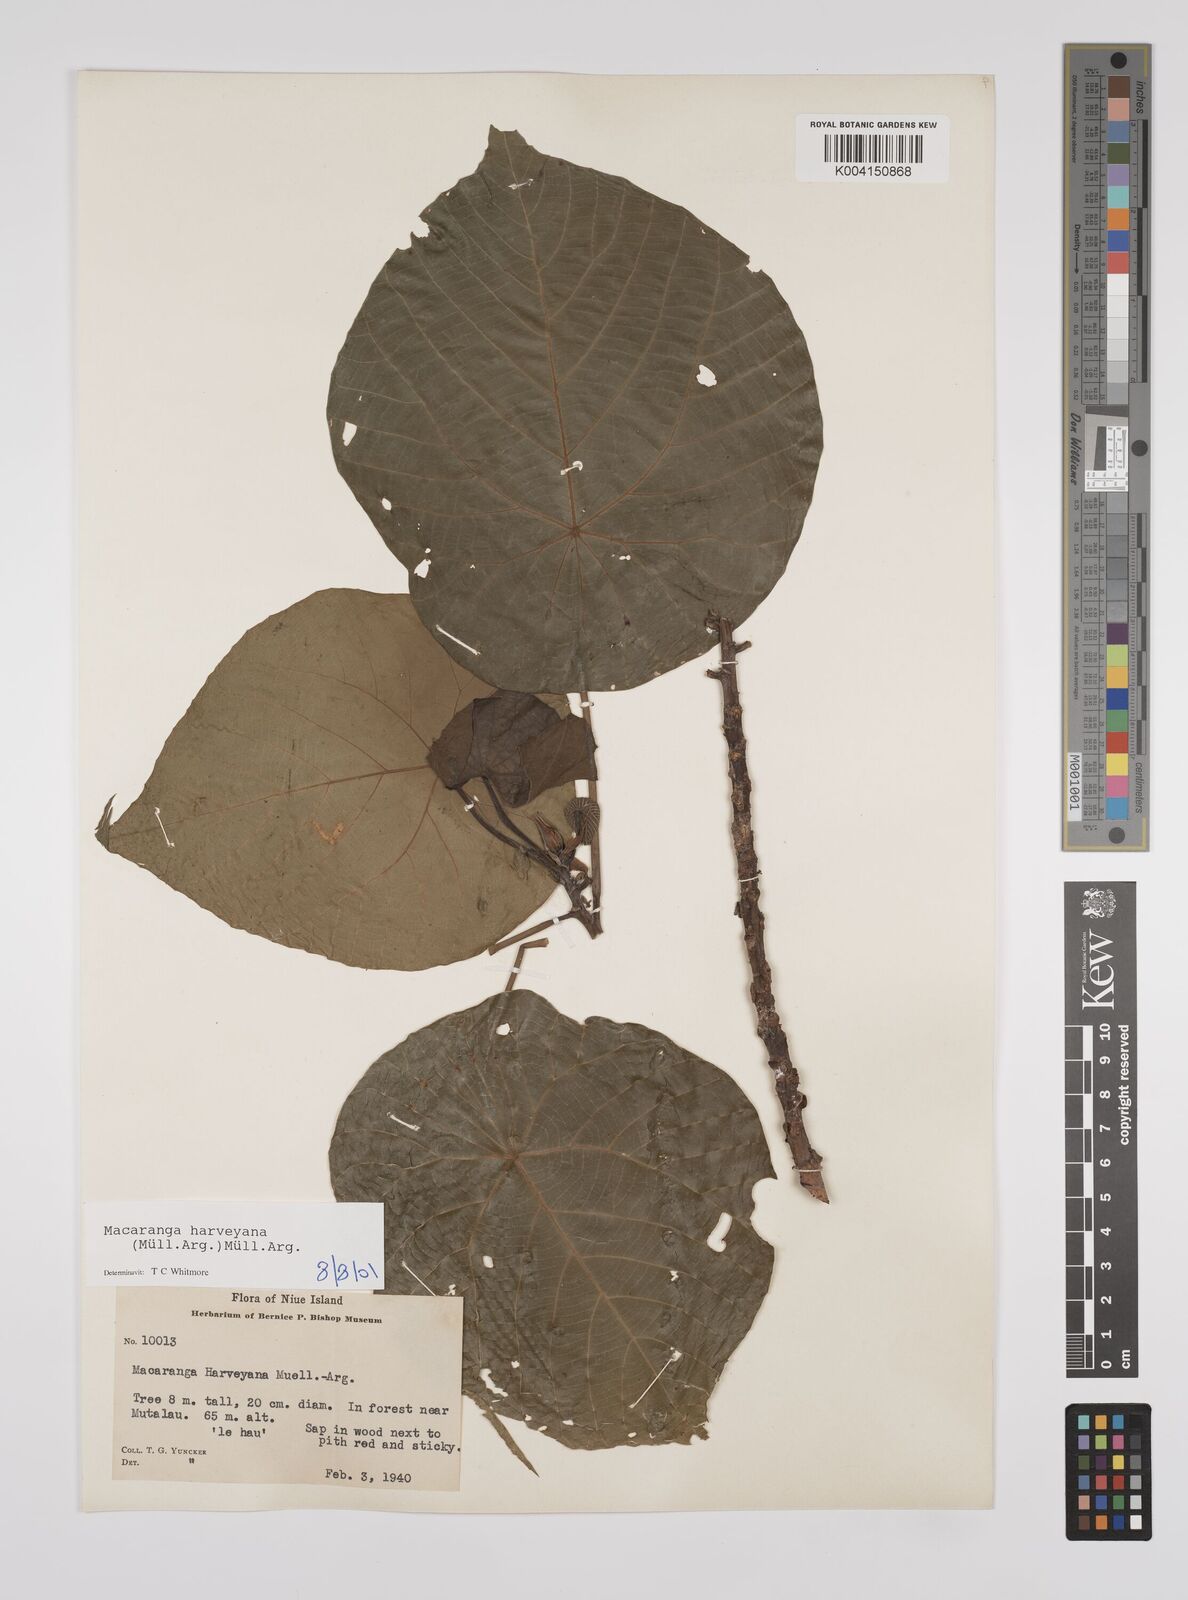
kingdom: Plantae
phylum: Tracheophyta
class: Magnoliopsida
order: Malpighiales
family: Euphorbiaceae
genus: Macaranga
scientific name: Macaranga harveyana
